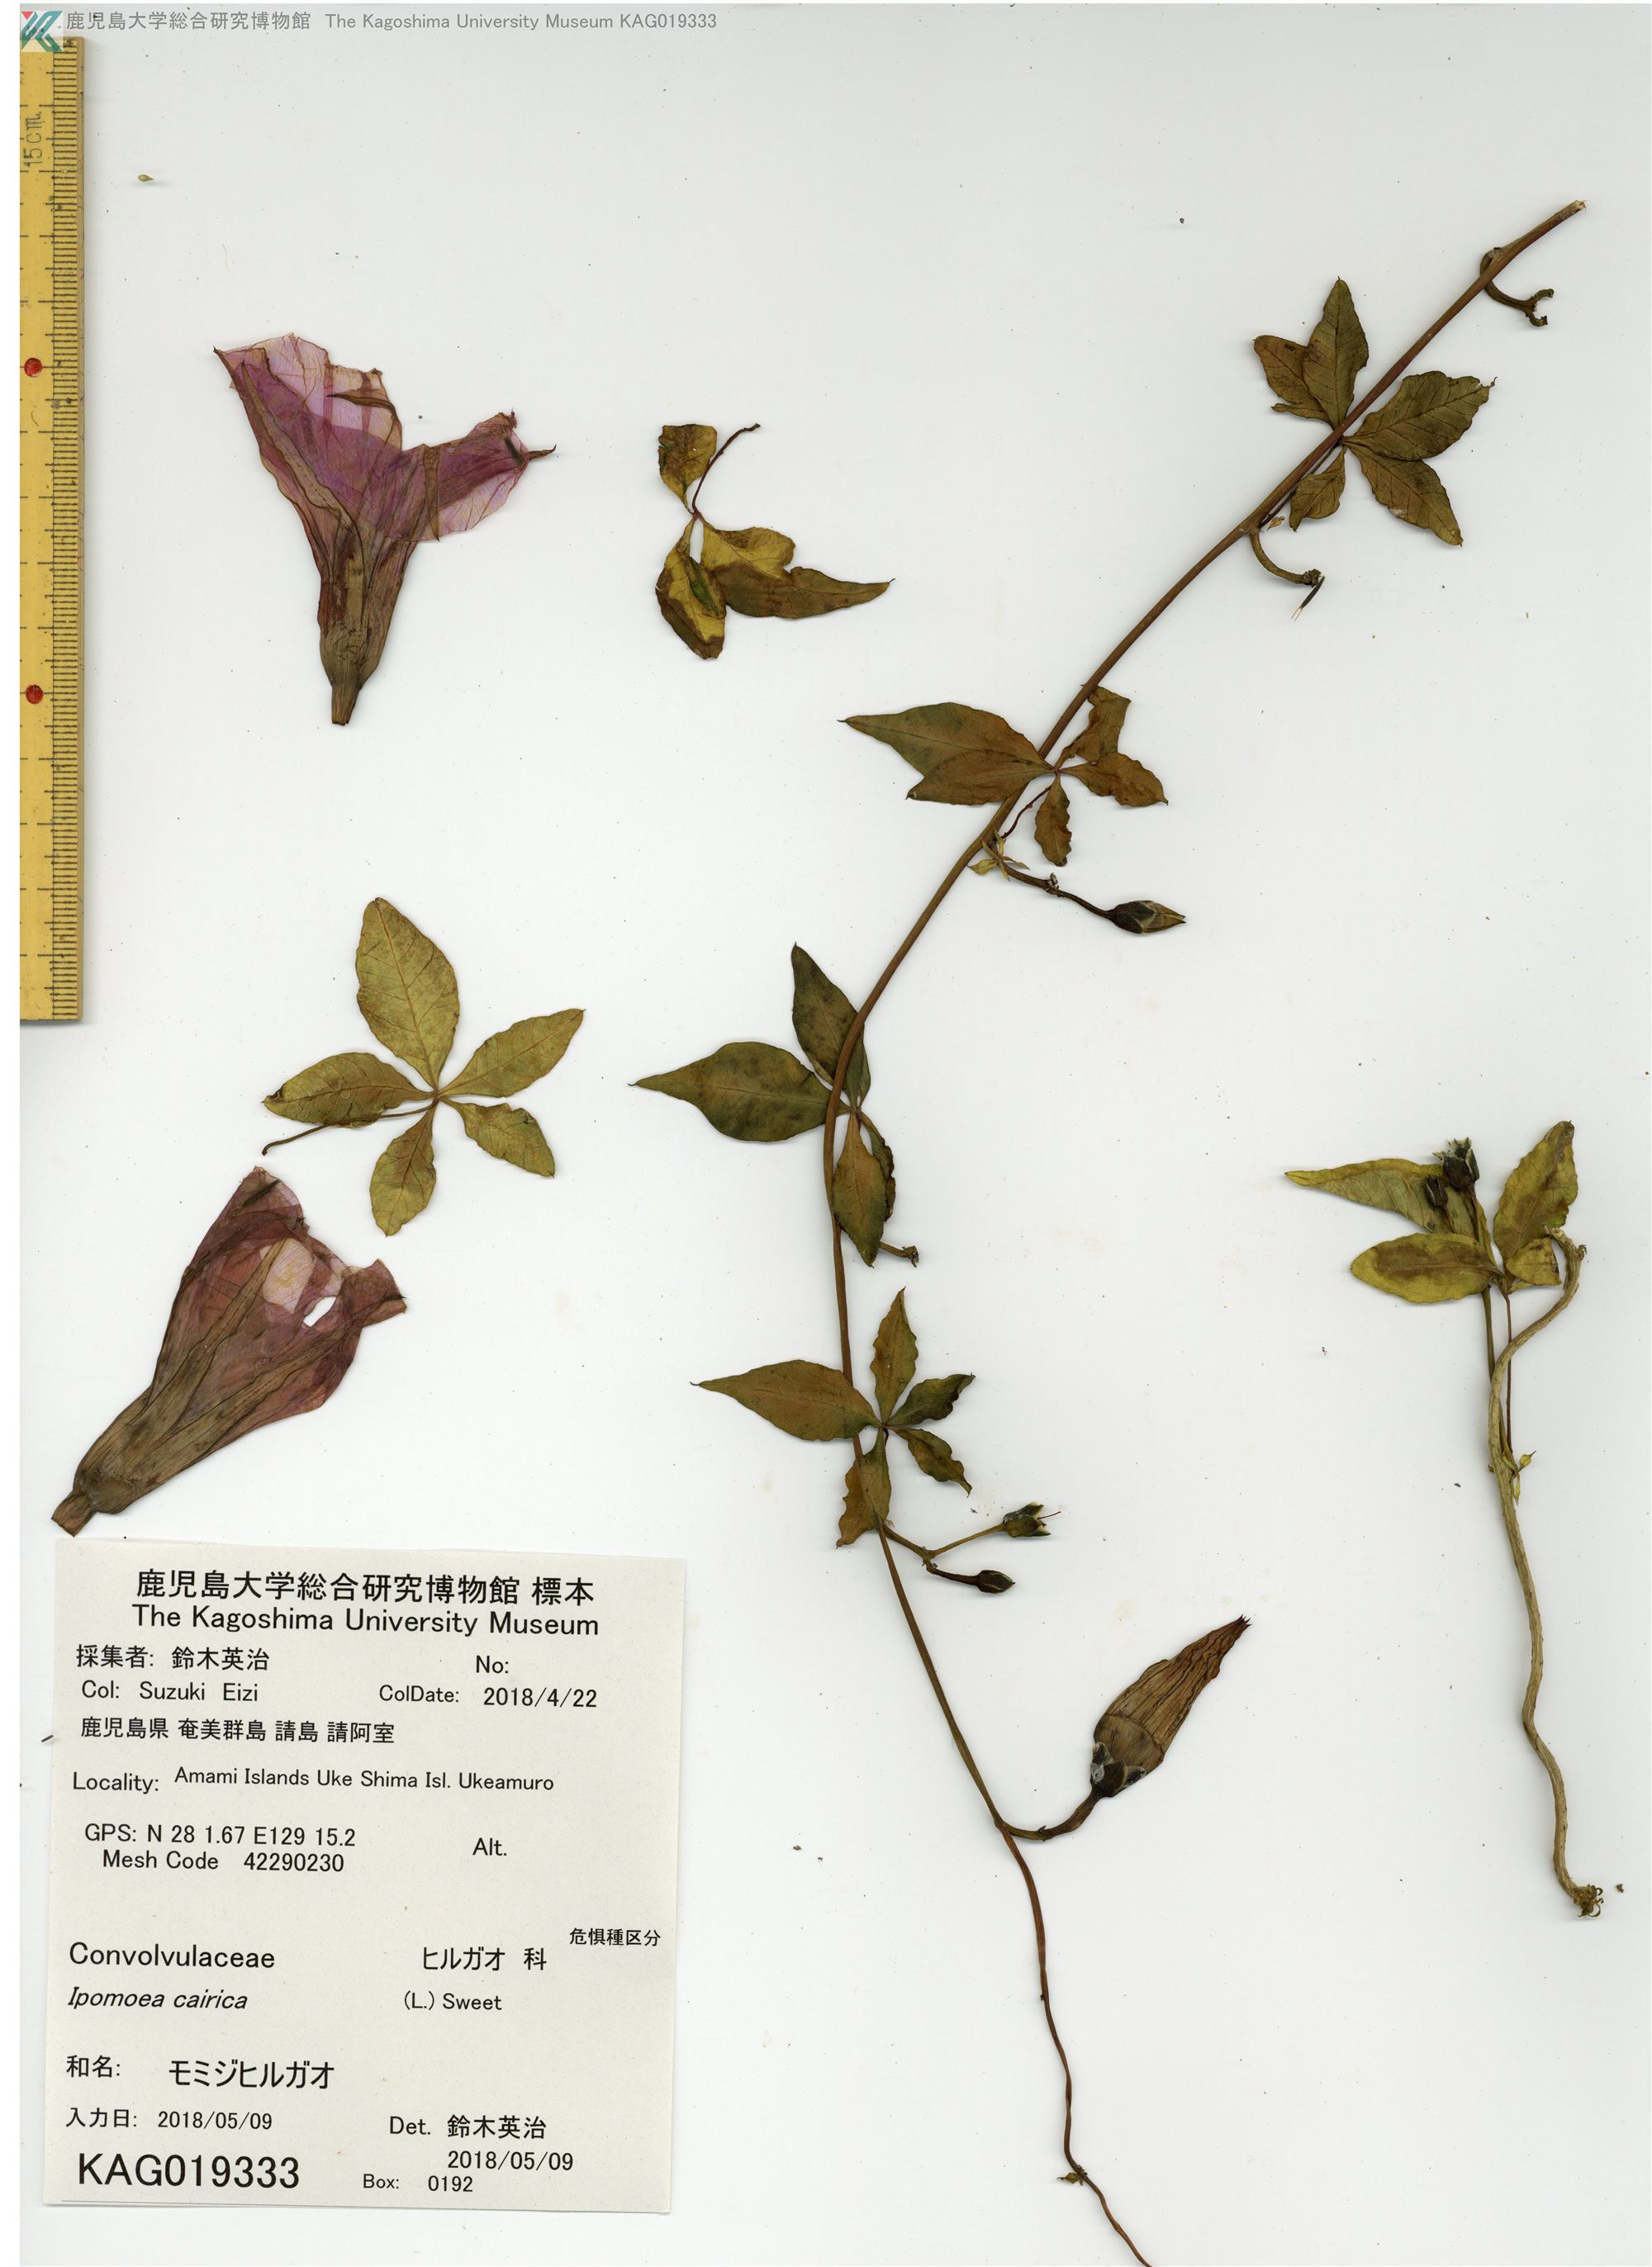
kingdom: Plantae
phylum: Tracheophyta
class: Magnoliopsida
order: Solanales
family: Convolvulaceae
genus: Ipomoea
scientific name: Ipomoea cairica
